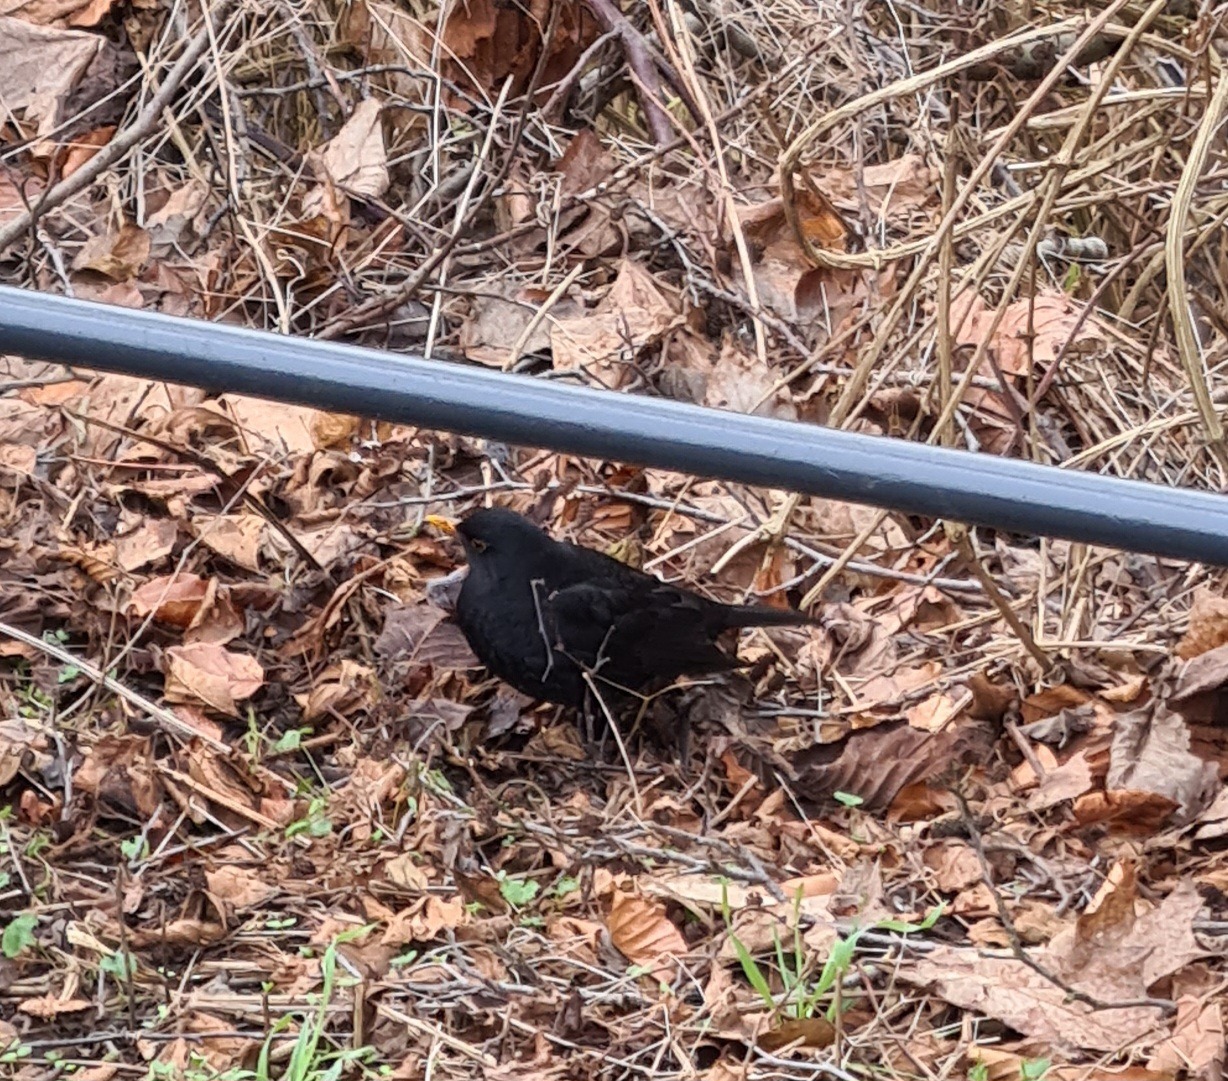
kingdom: Animalia
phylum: Chordata
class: Aves
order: Passeriformes
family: Turdidae
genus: Turdus
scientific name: Turdus merula
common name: Solsort
